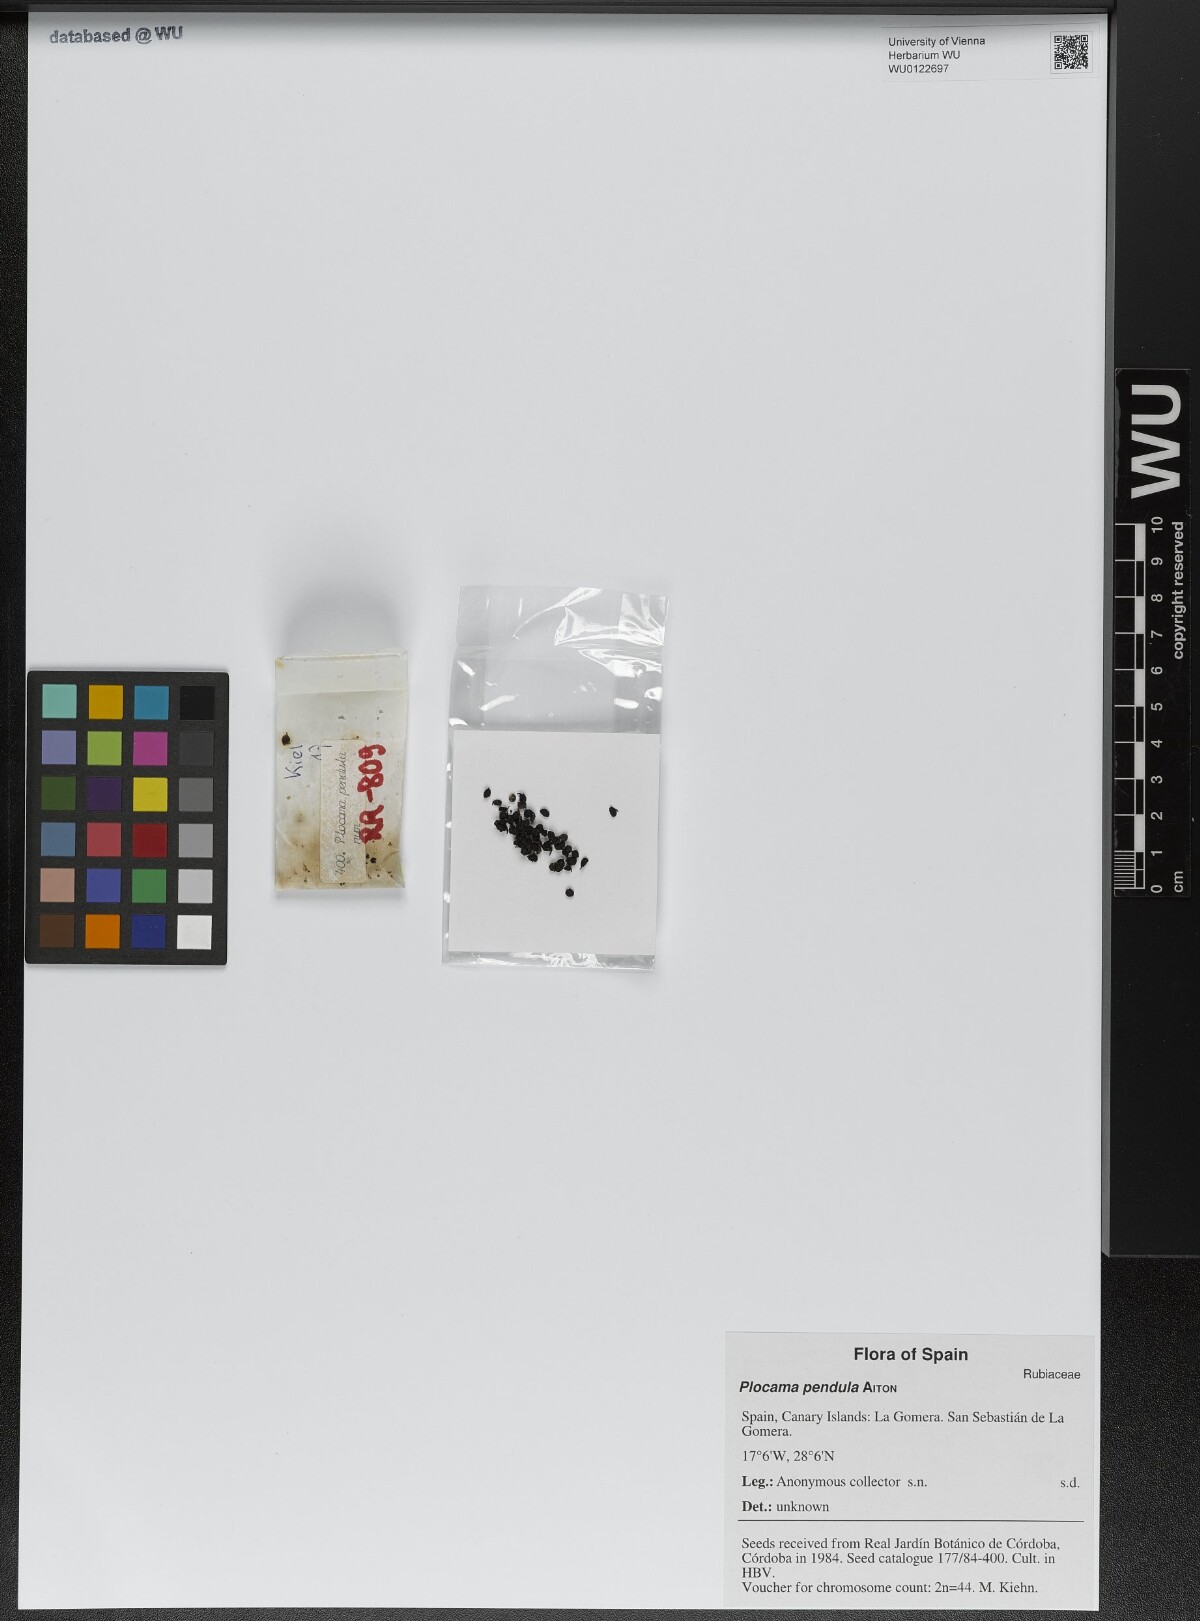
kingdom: Plantae
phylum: Tracheophyta
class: Magnoliopsida
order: Gentianales
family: Rubiaceae
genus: Plocama
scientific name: Plocama pendula
